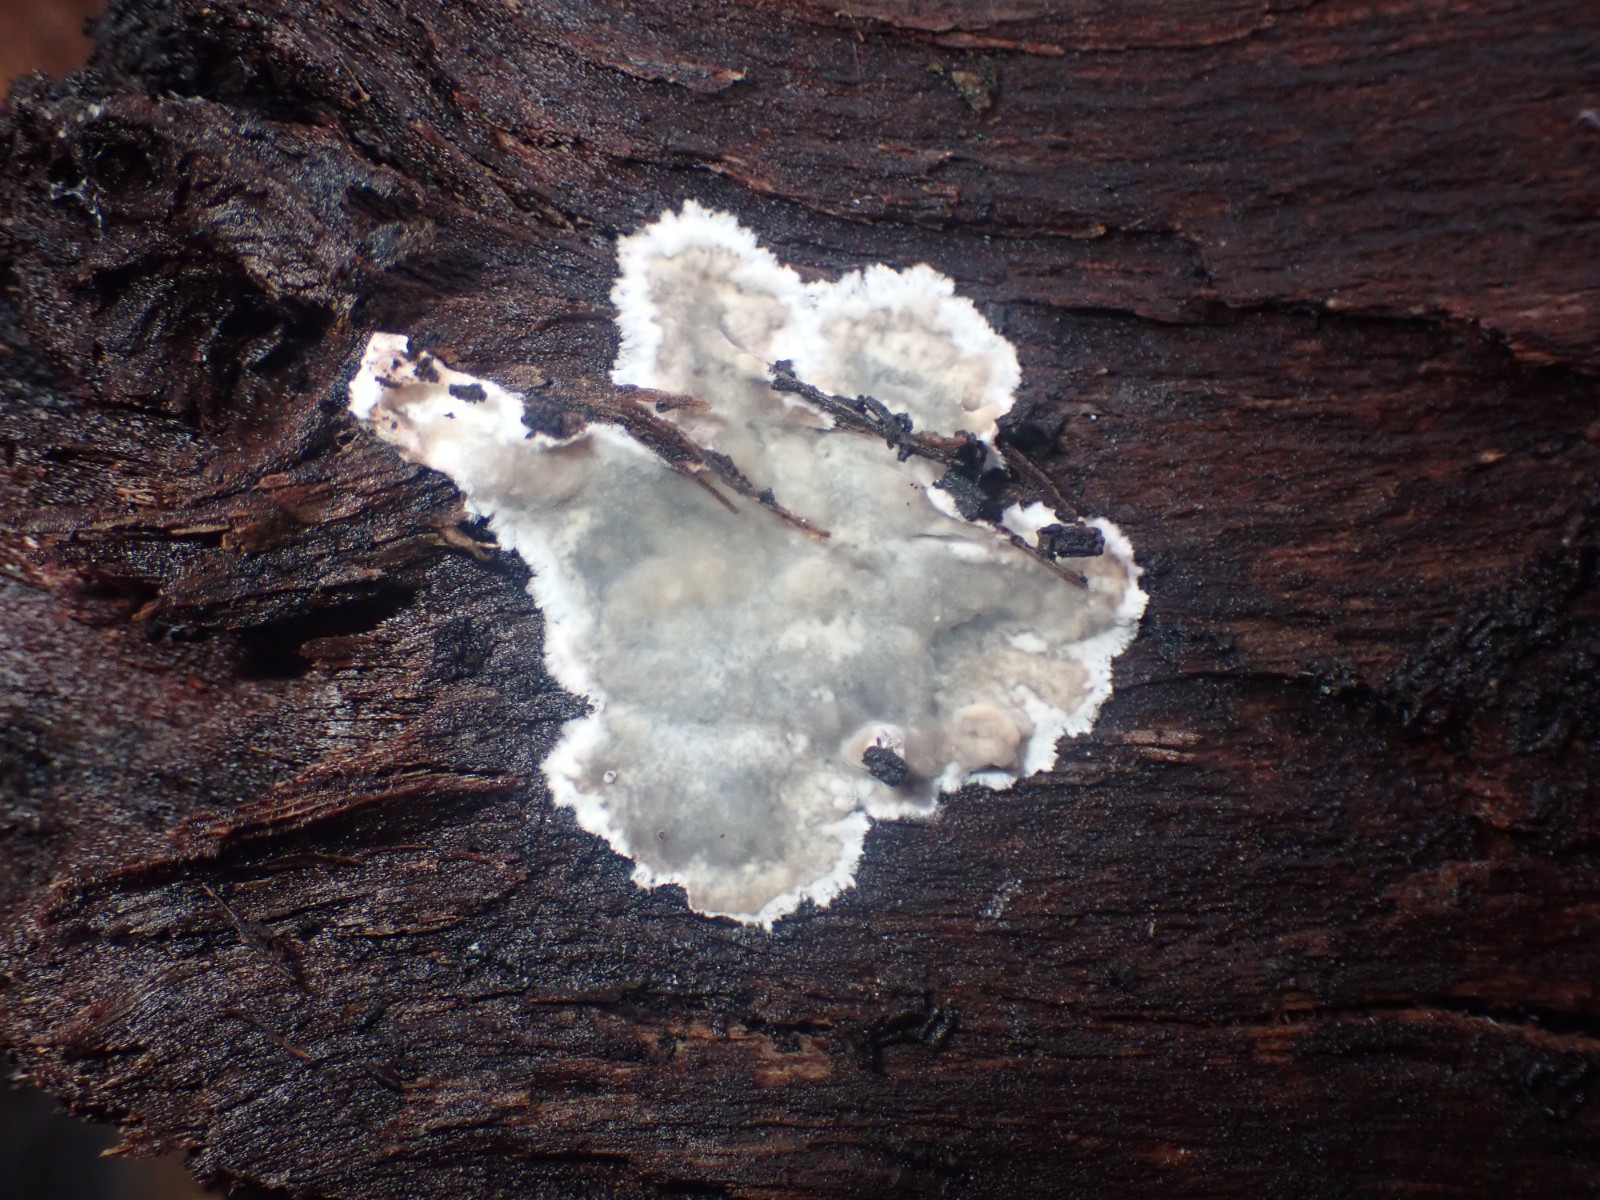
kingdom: Fungi
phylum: Basidiomycota
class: Agaricomycetes
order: Corticiales
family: Corticiaceae
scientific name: Corticiaceae
